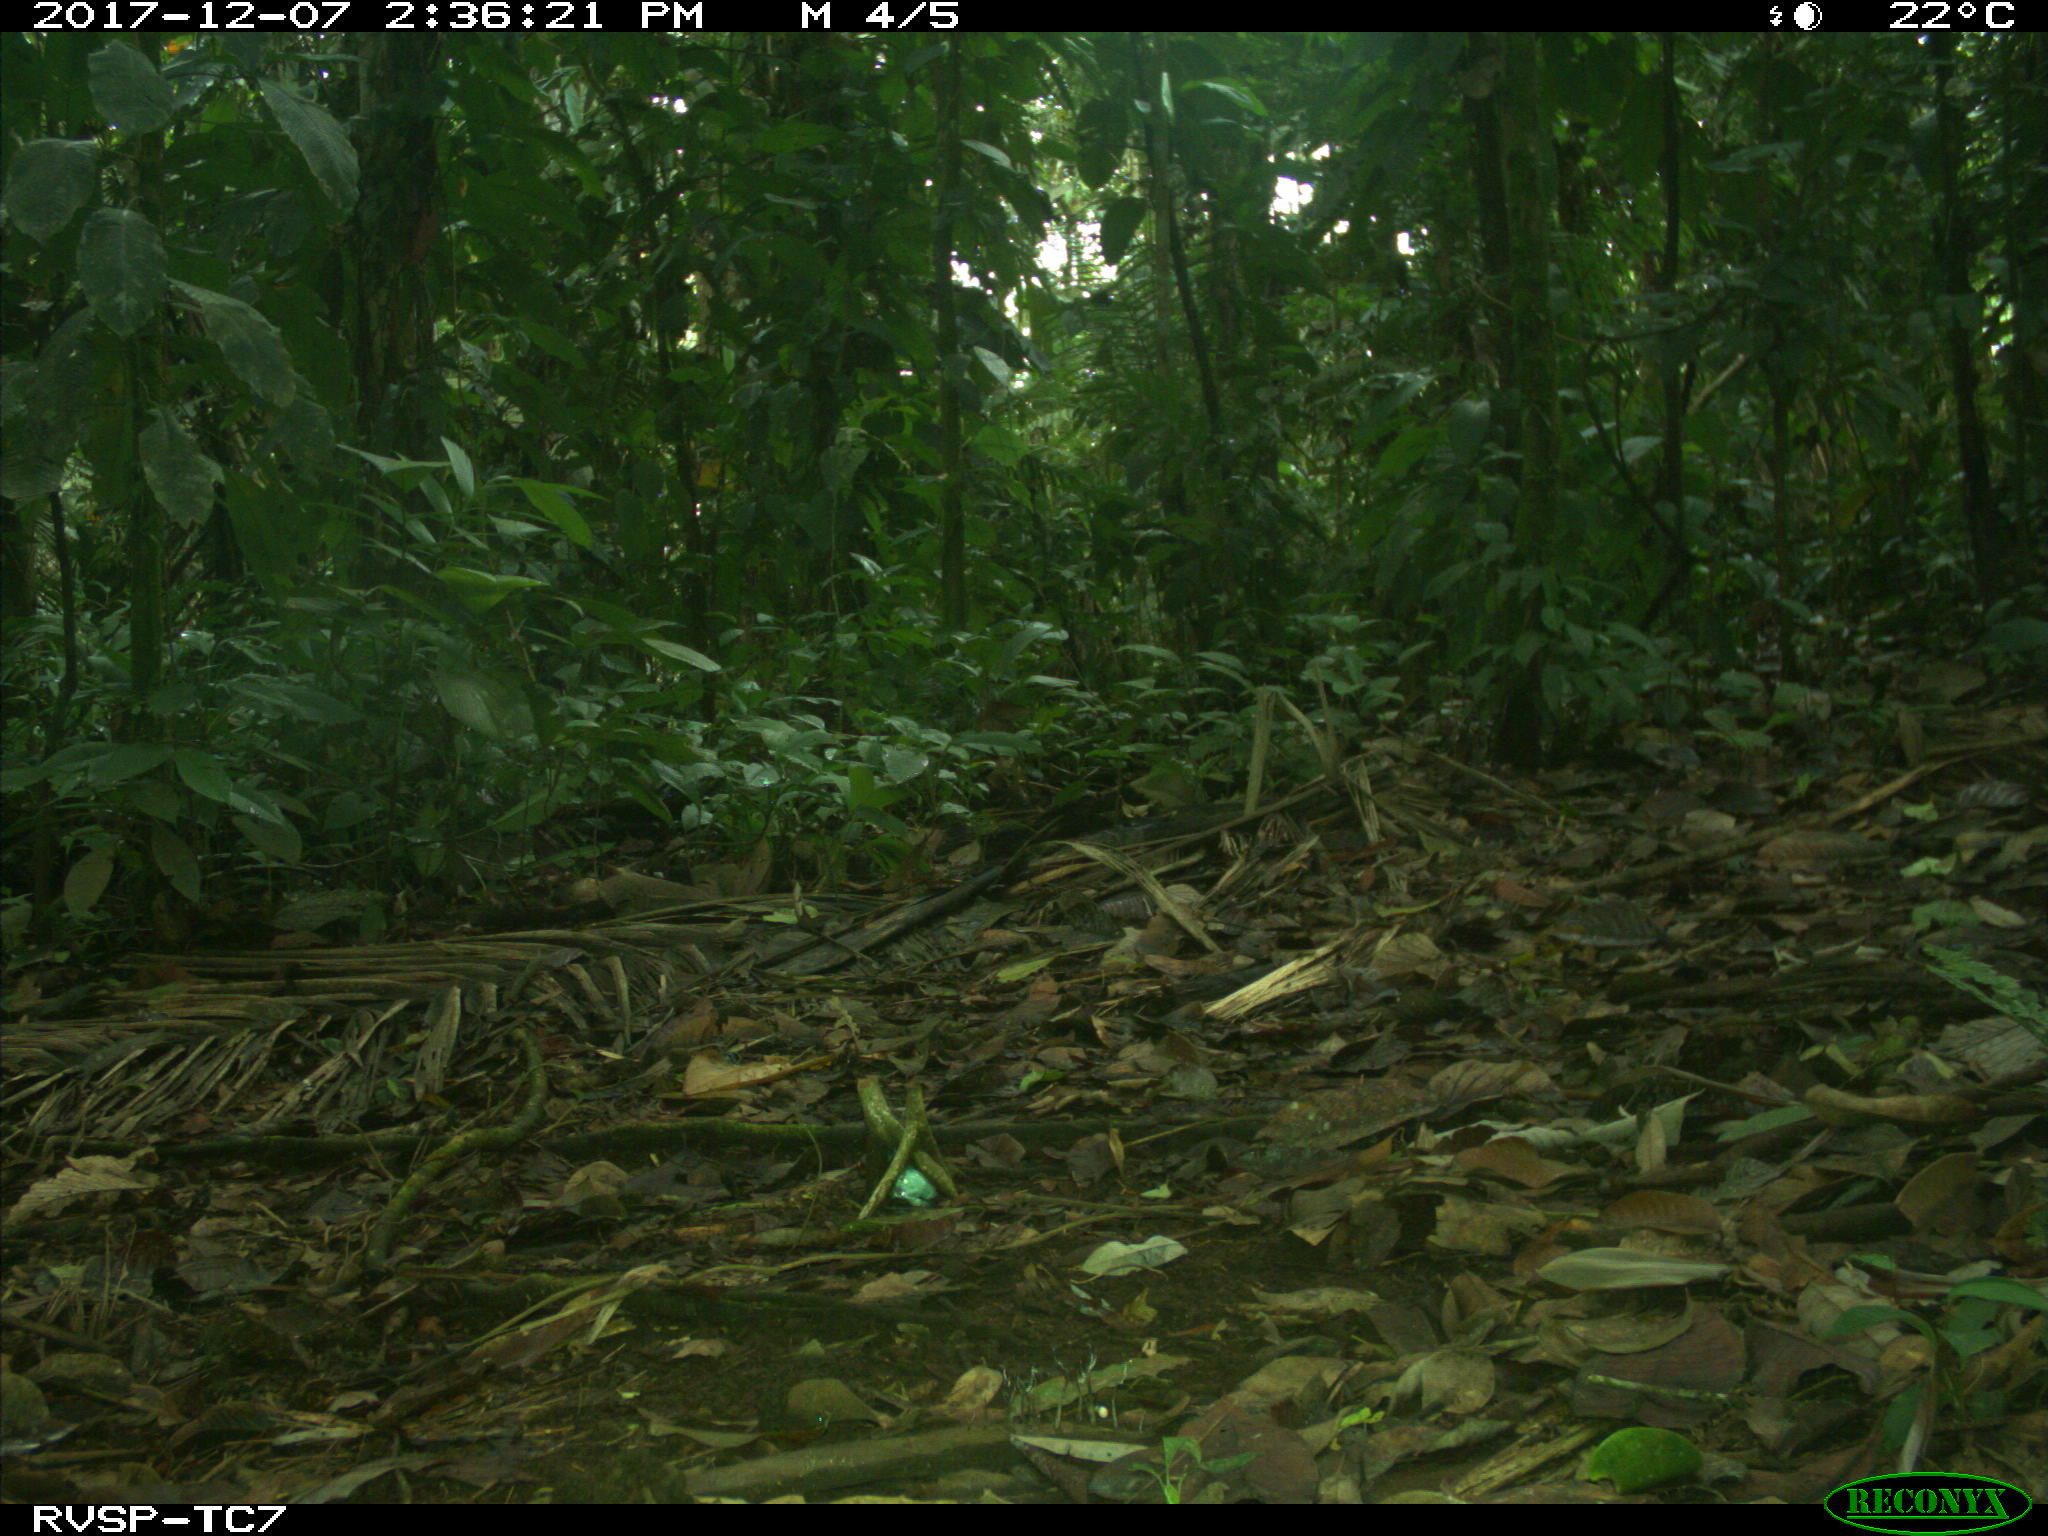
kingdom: Animalia
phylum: Chordata
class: Mammalia
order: Rodentia
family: Dasyproctidae
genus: Dasyprocta
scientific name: Dasyprocta punctata
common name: Central american agouti
